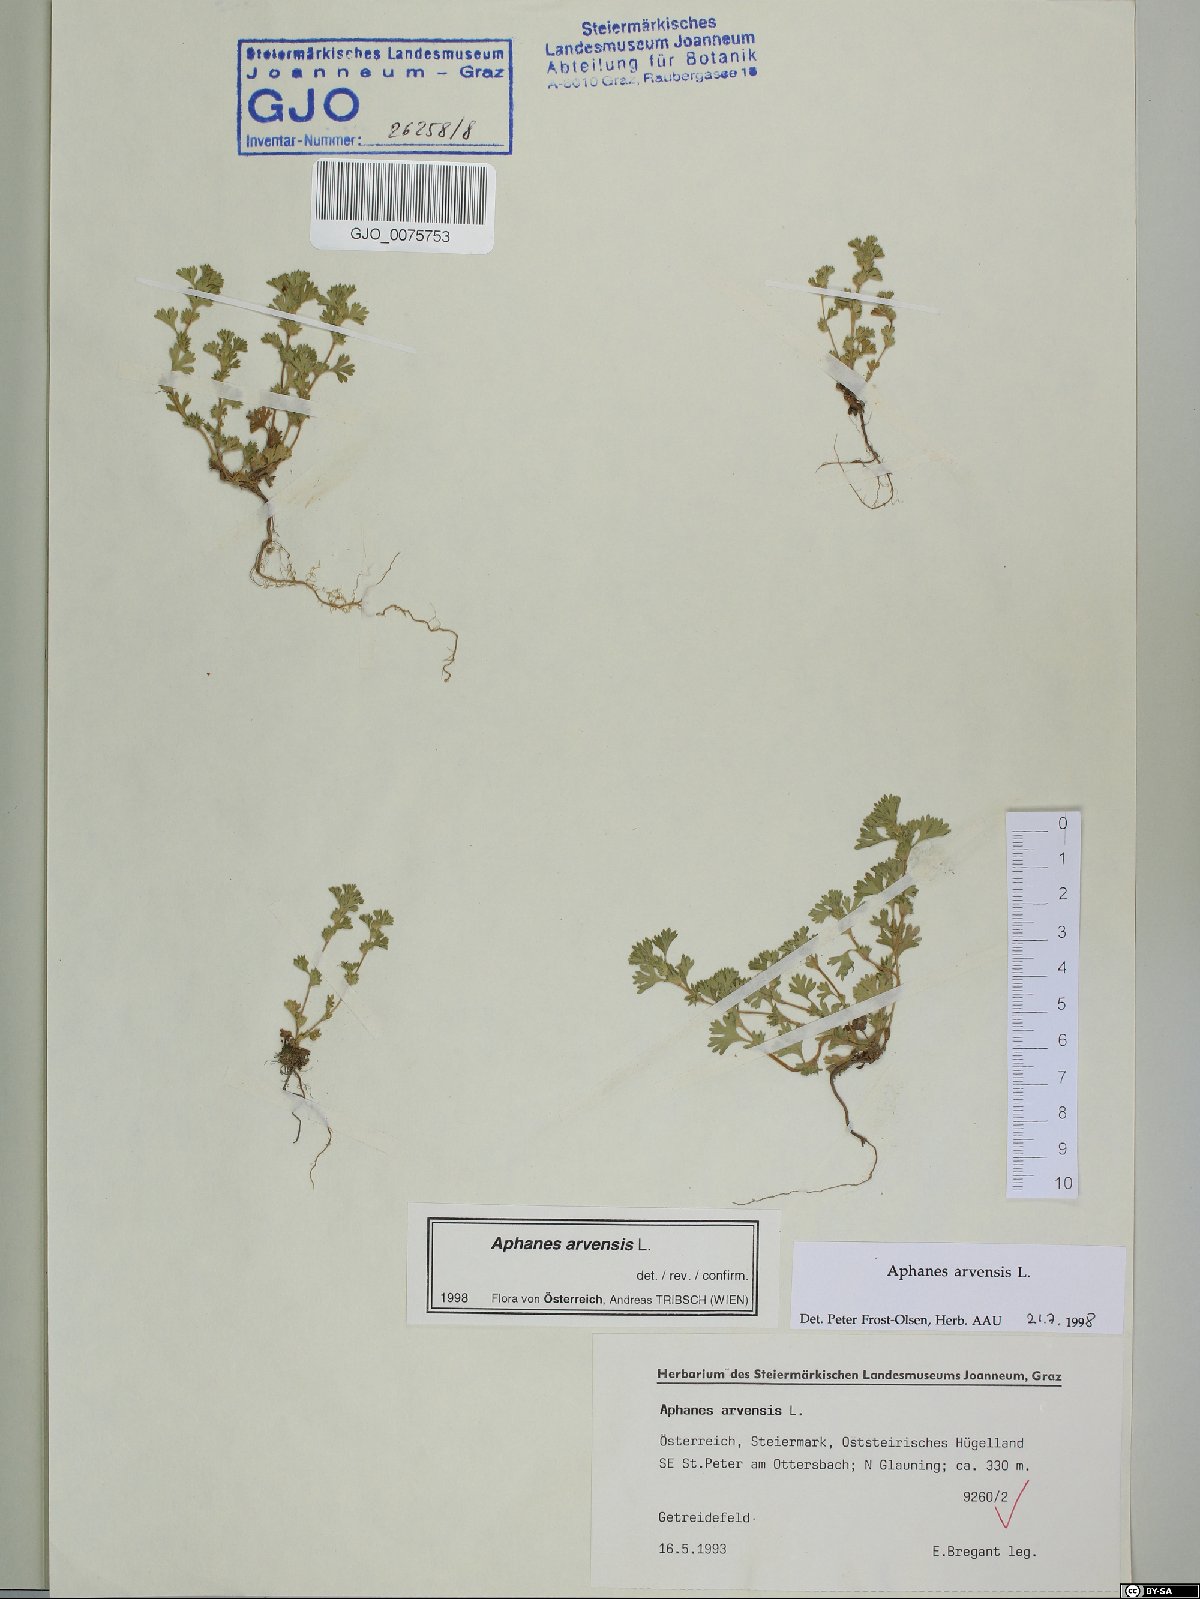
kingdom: Plantae
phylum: Tracheophyta
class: Magnoliopsida
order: Rosales
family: Rosaceae
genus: Aphanes
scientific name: Aphanes arvensis
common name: Parsley-piert
